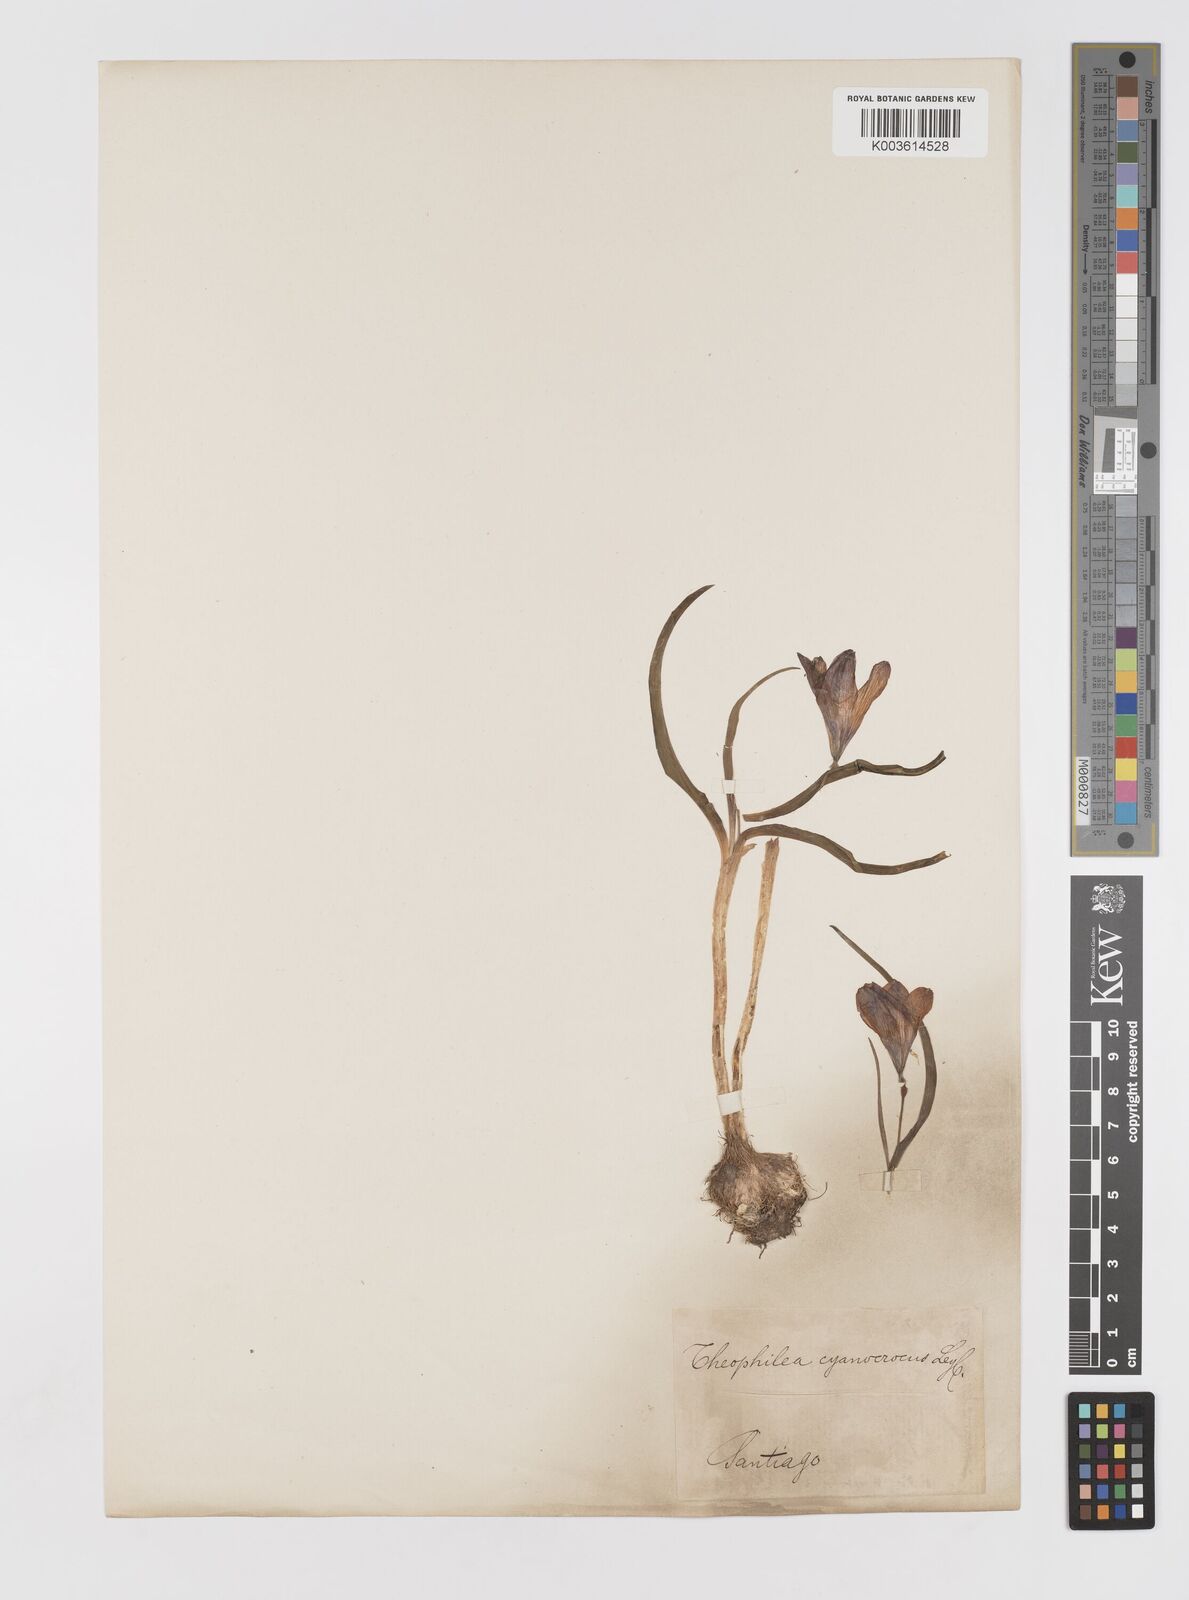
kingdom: Plantae
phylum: Tracheophyta
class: Liliopsida
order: Asparagales
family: Tecophilaeaceae
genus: Tecophilaea
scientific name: Tecophilaea cyanocrocus
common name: Chilean blue-crocus
